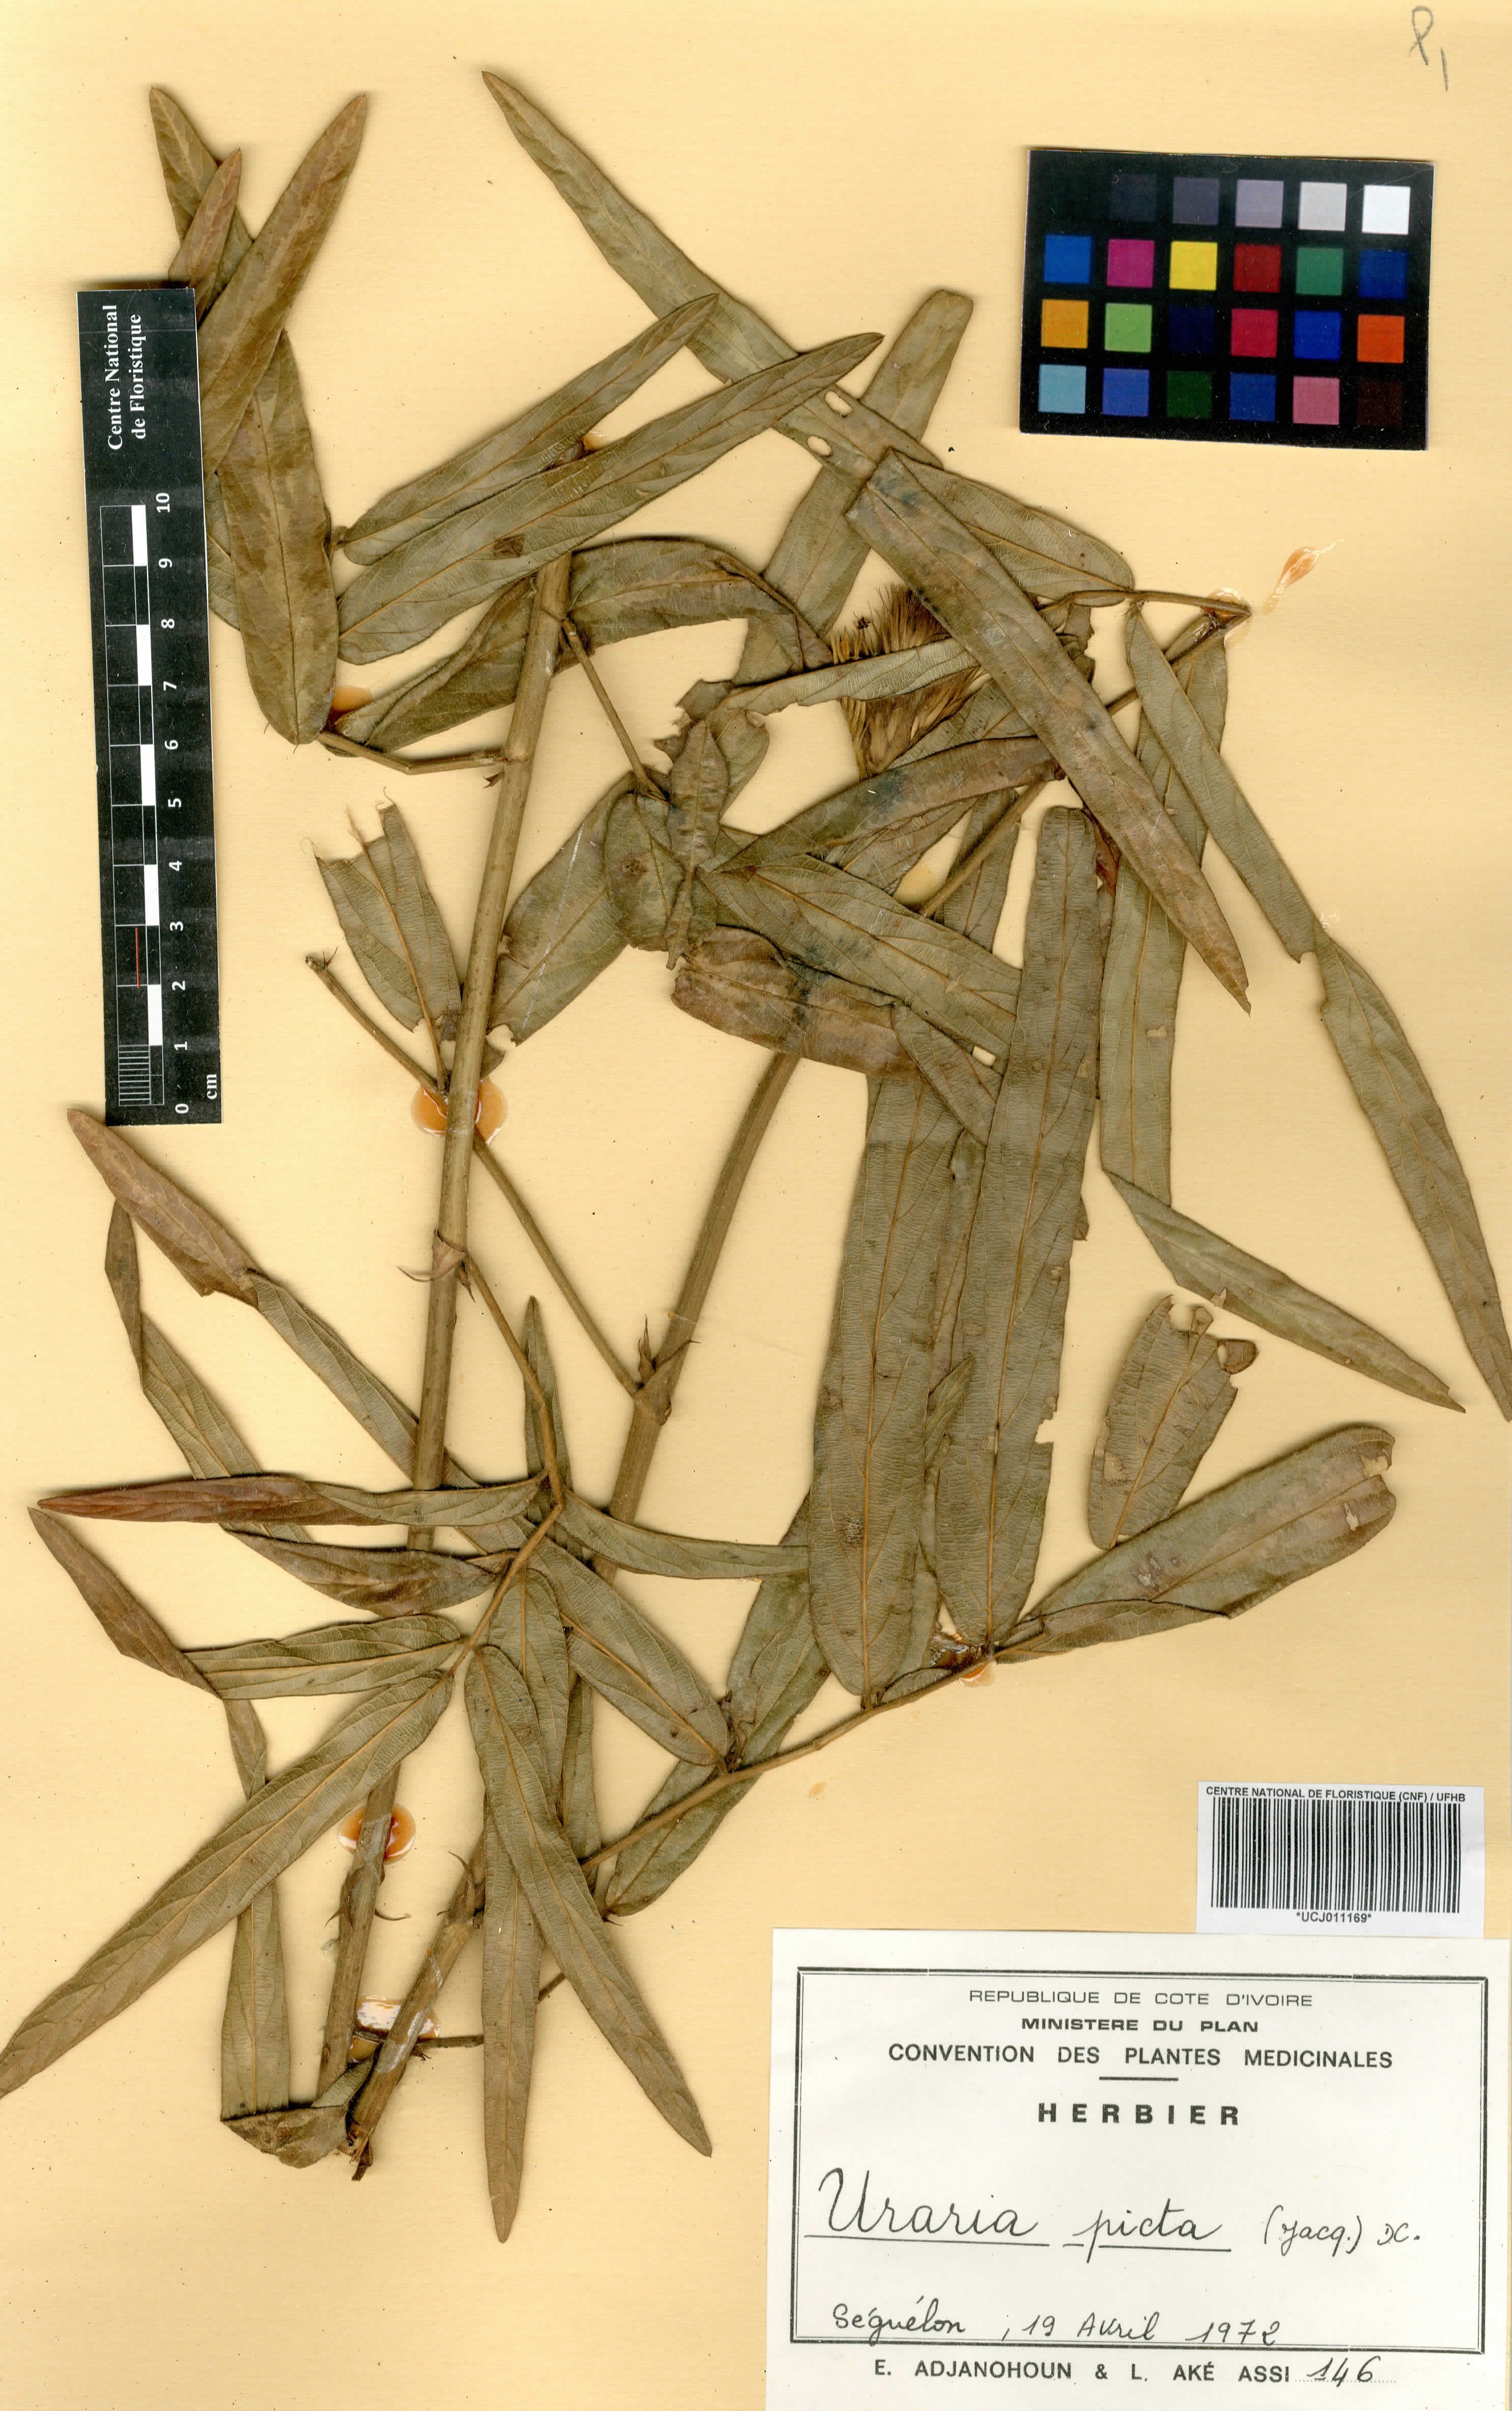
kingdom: Plantae
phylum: Tracheophyta
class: Magnoliopsida
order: Fabales
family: Fabaceae
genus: Uraria
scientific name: Uraria picta
